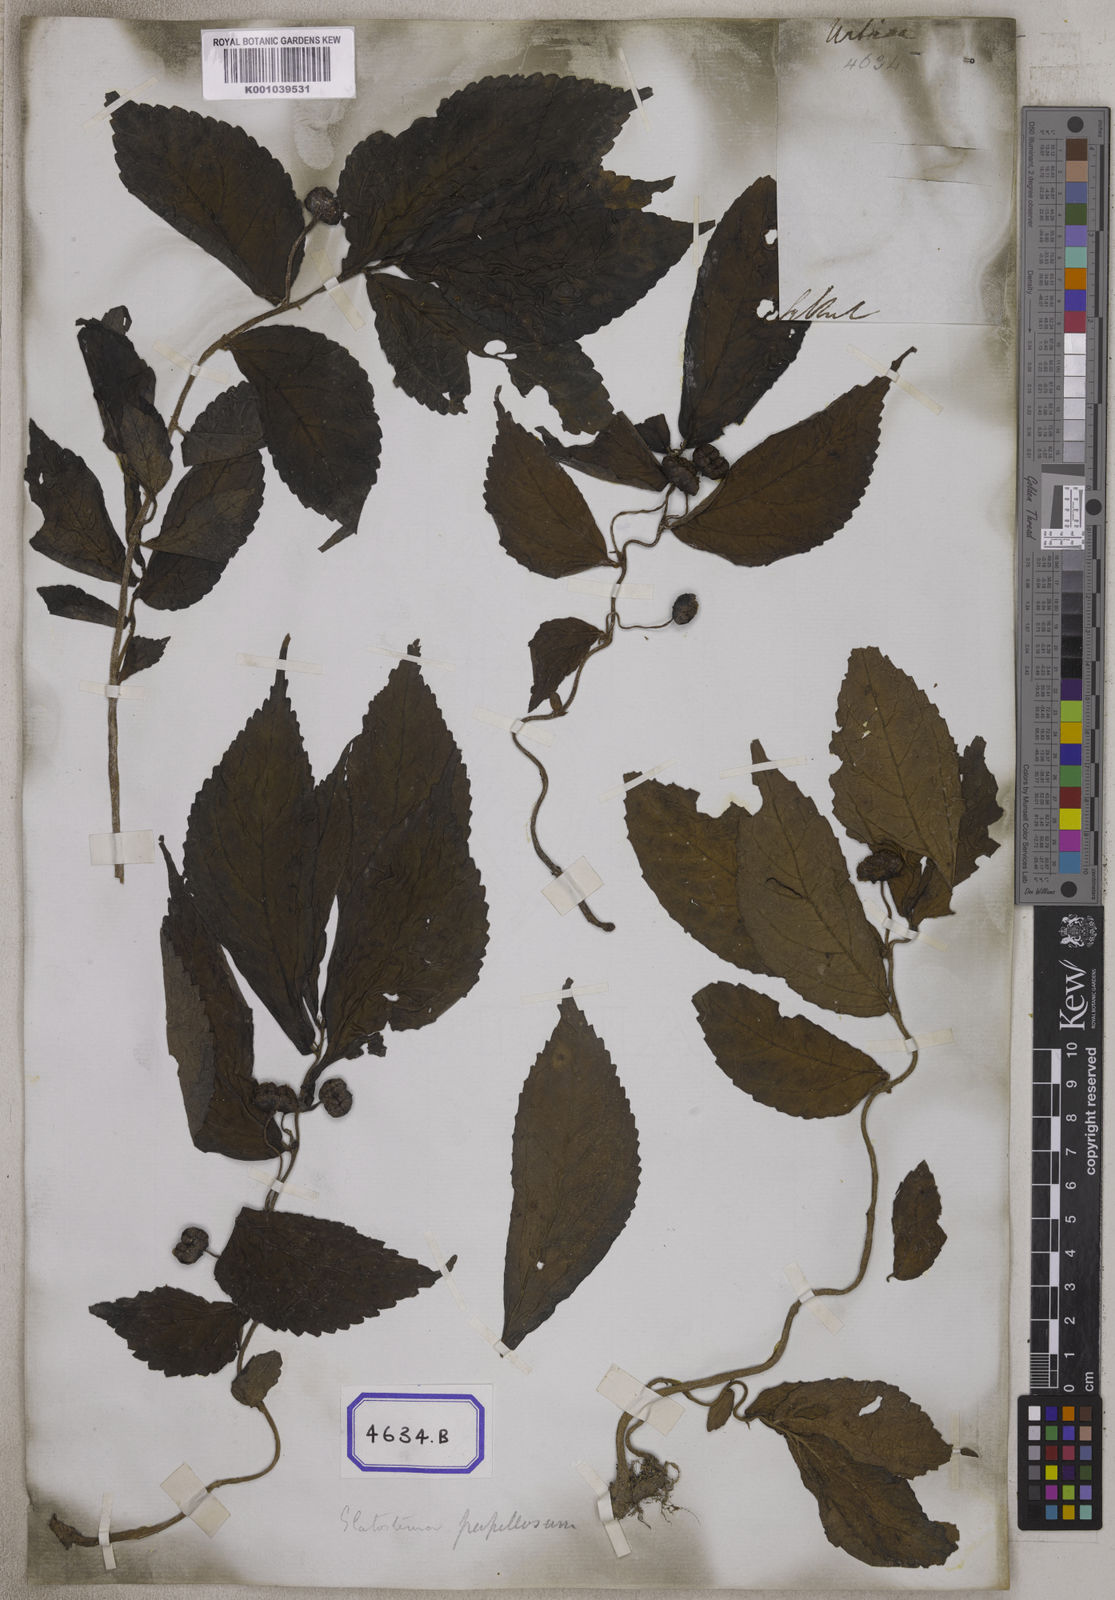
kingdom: Plantae
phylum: Tracheophyta
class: Magnoliopsida
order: Rosales
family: Urticaceae
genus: Procris
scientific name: Procris
